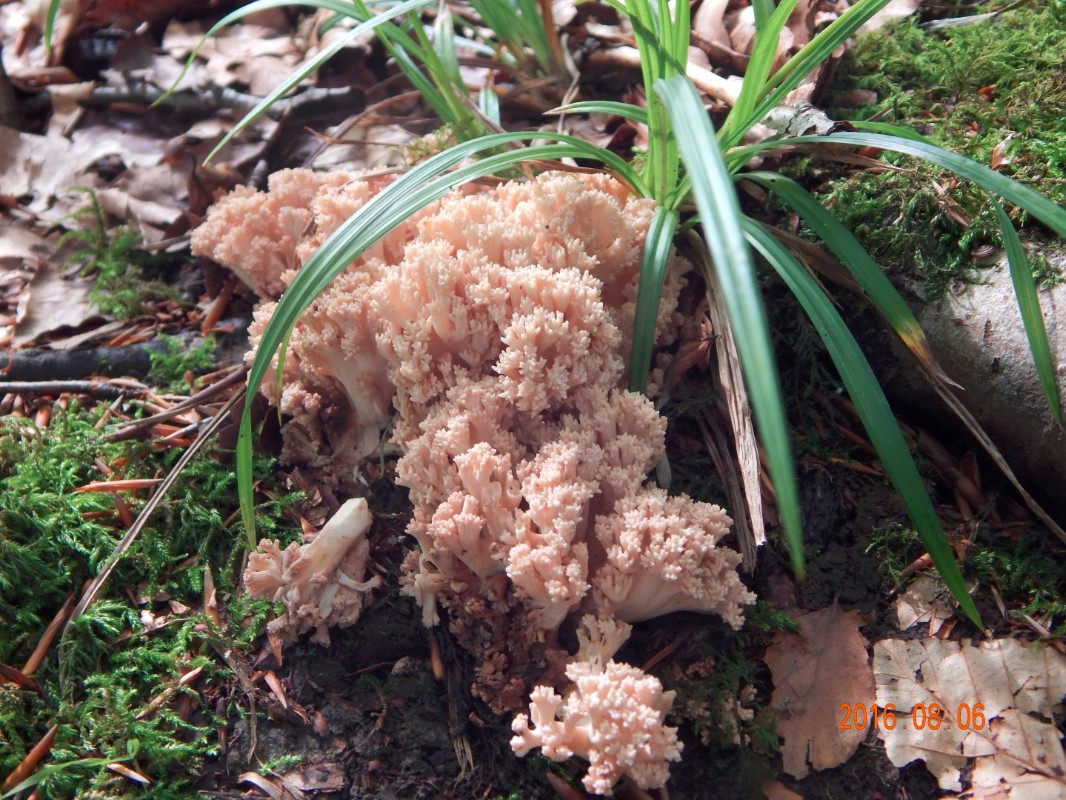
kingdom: Fungi
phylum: Basidiomycota
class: Agaricomycetes
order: Gomphales
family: Gomphaceae
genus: Ramaria
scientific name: Ramaria
